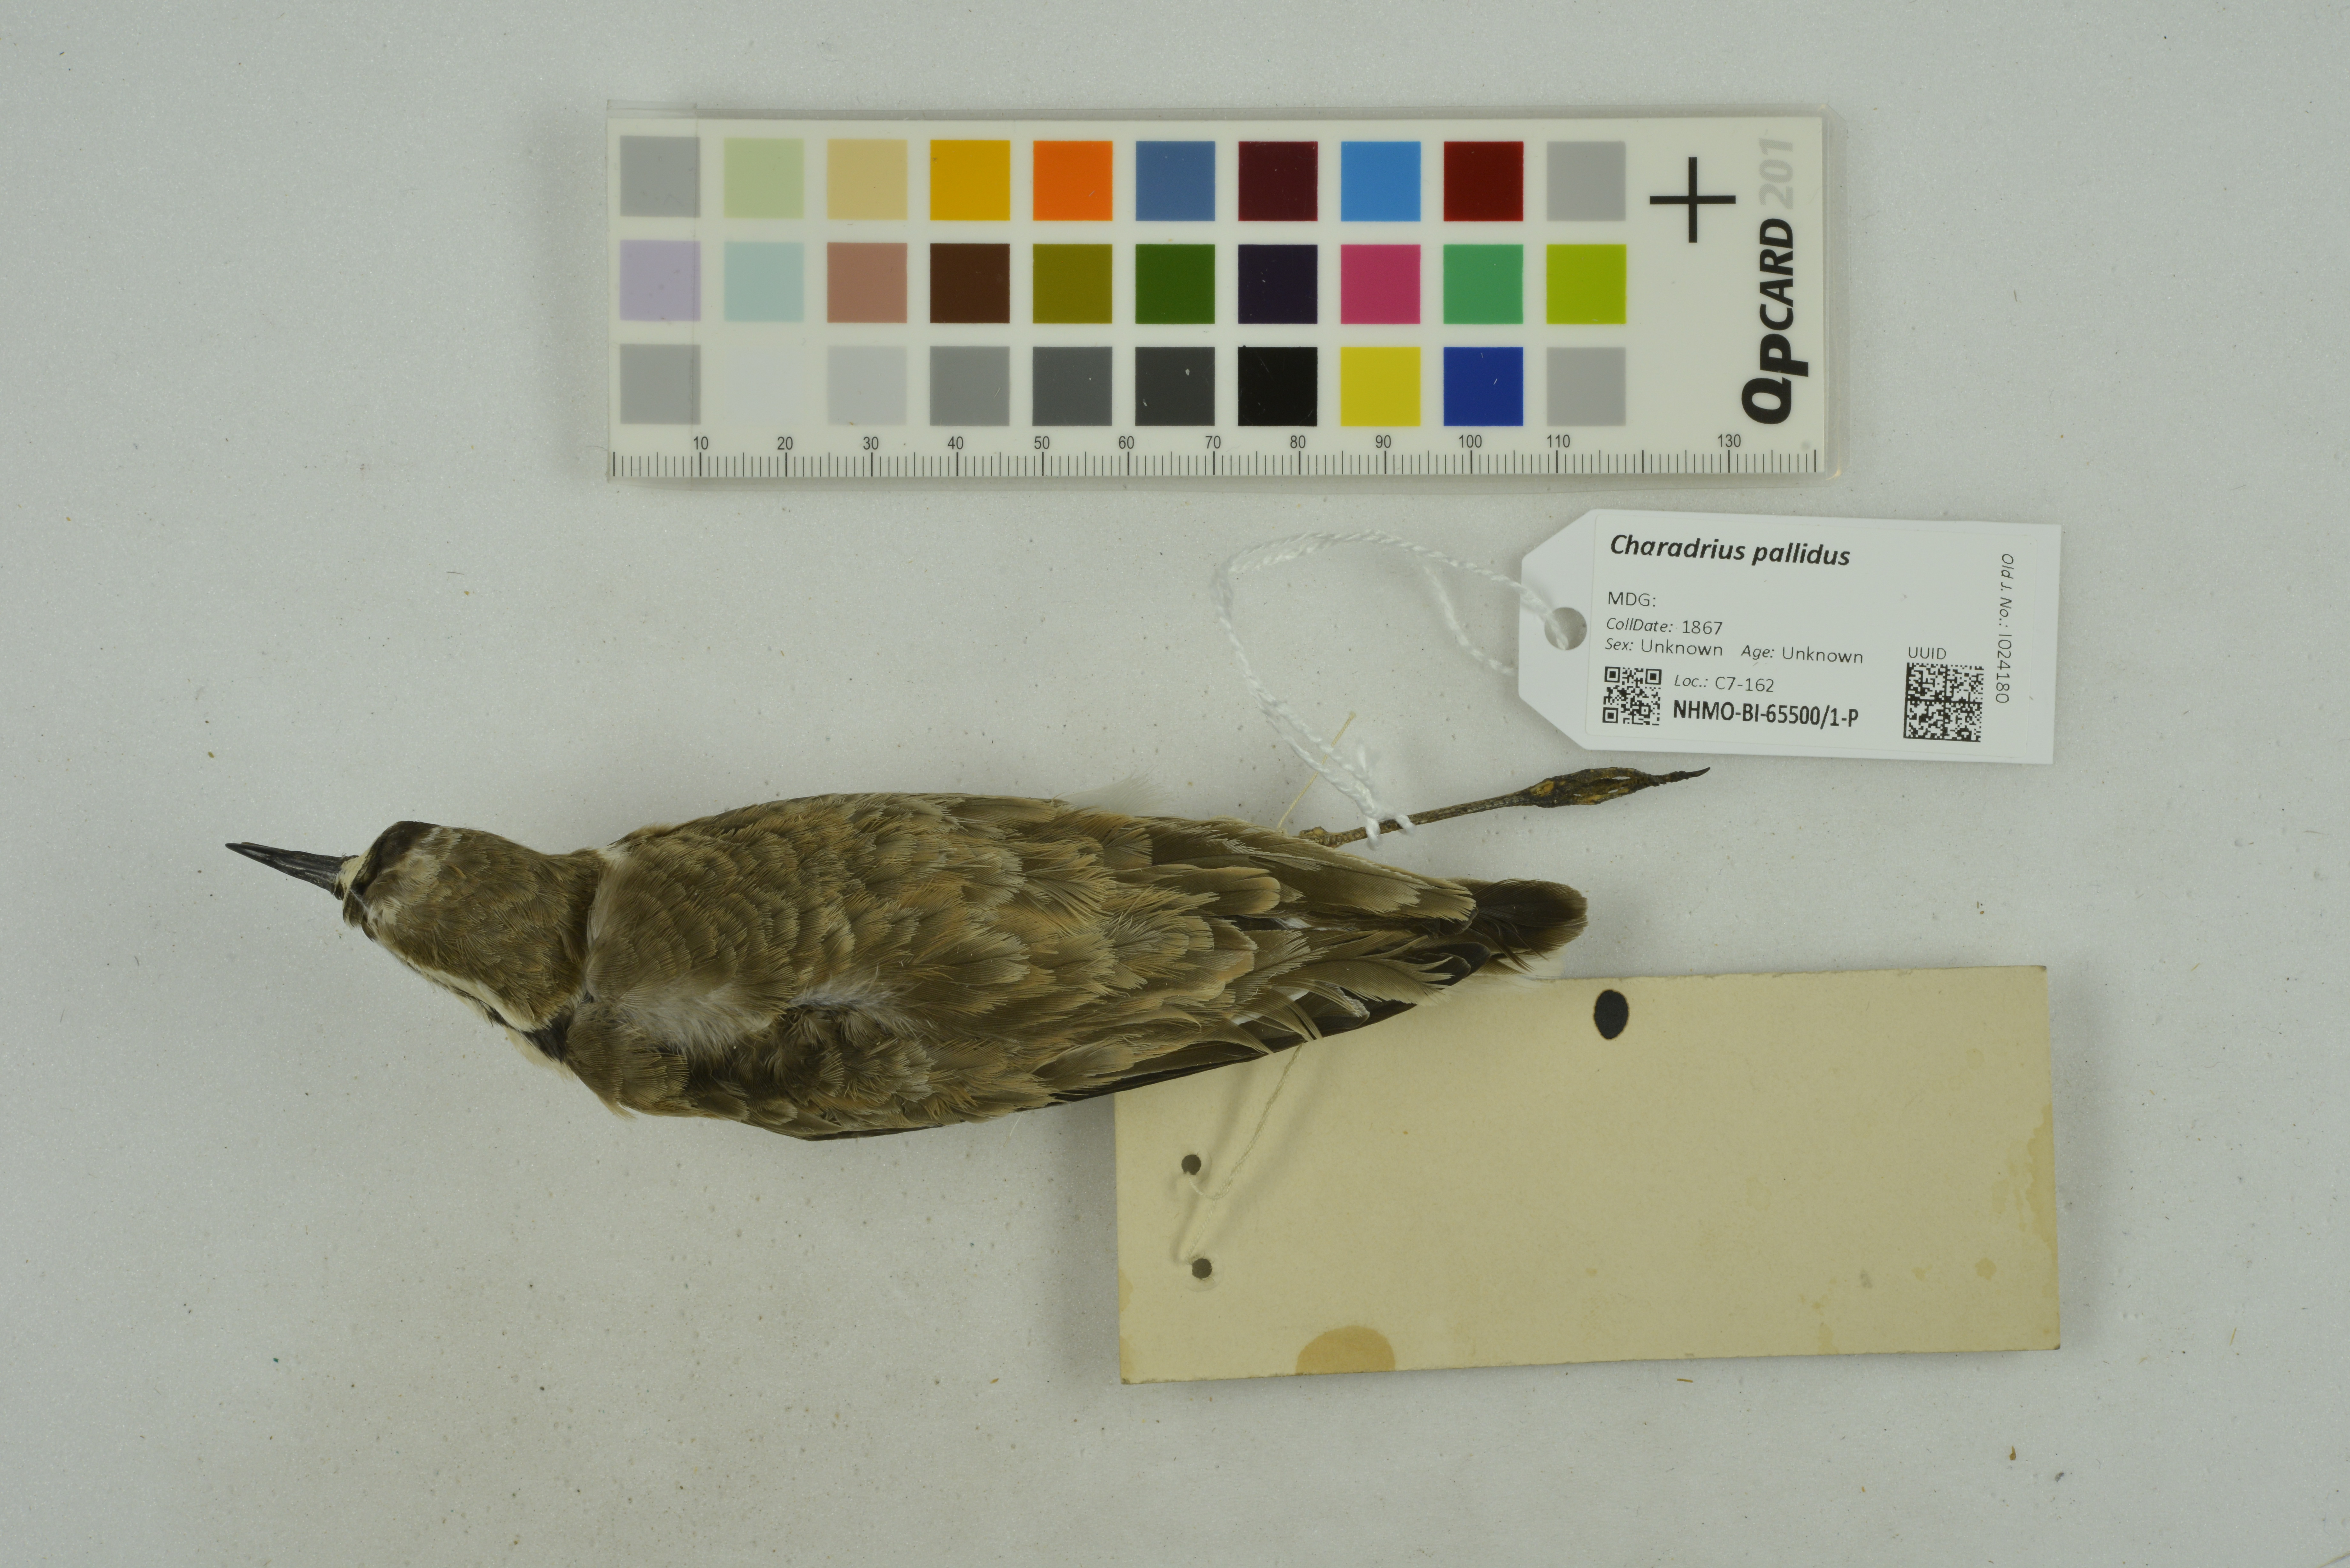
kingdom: Animalia
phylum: Chordata
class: Aves
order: Charadriiformes
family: Charadriidae
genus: Charadrius
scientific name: Charadrius pallidus
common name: Chestnut-banded plover
